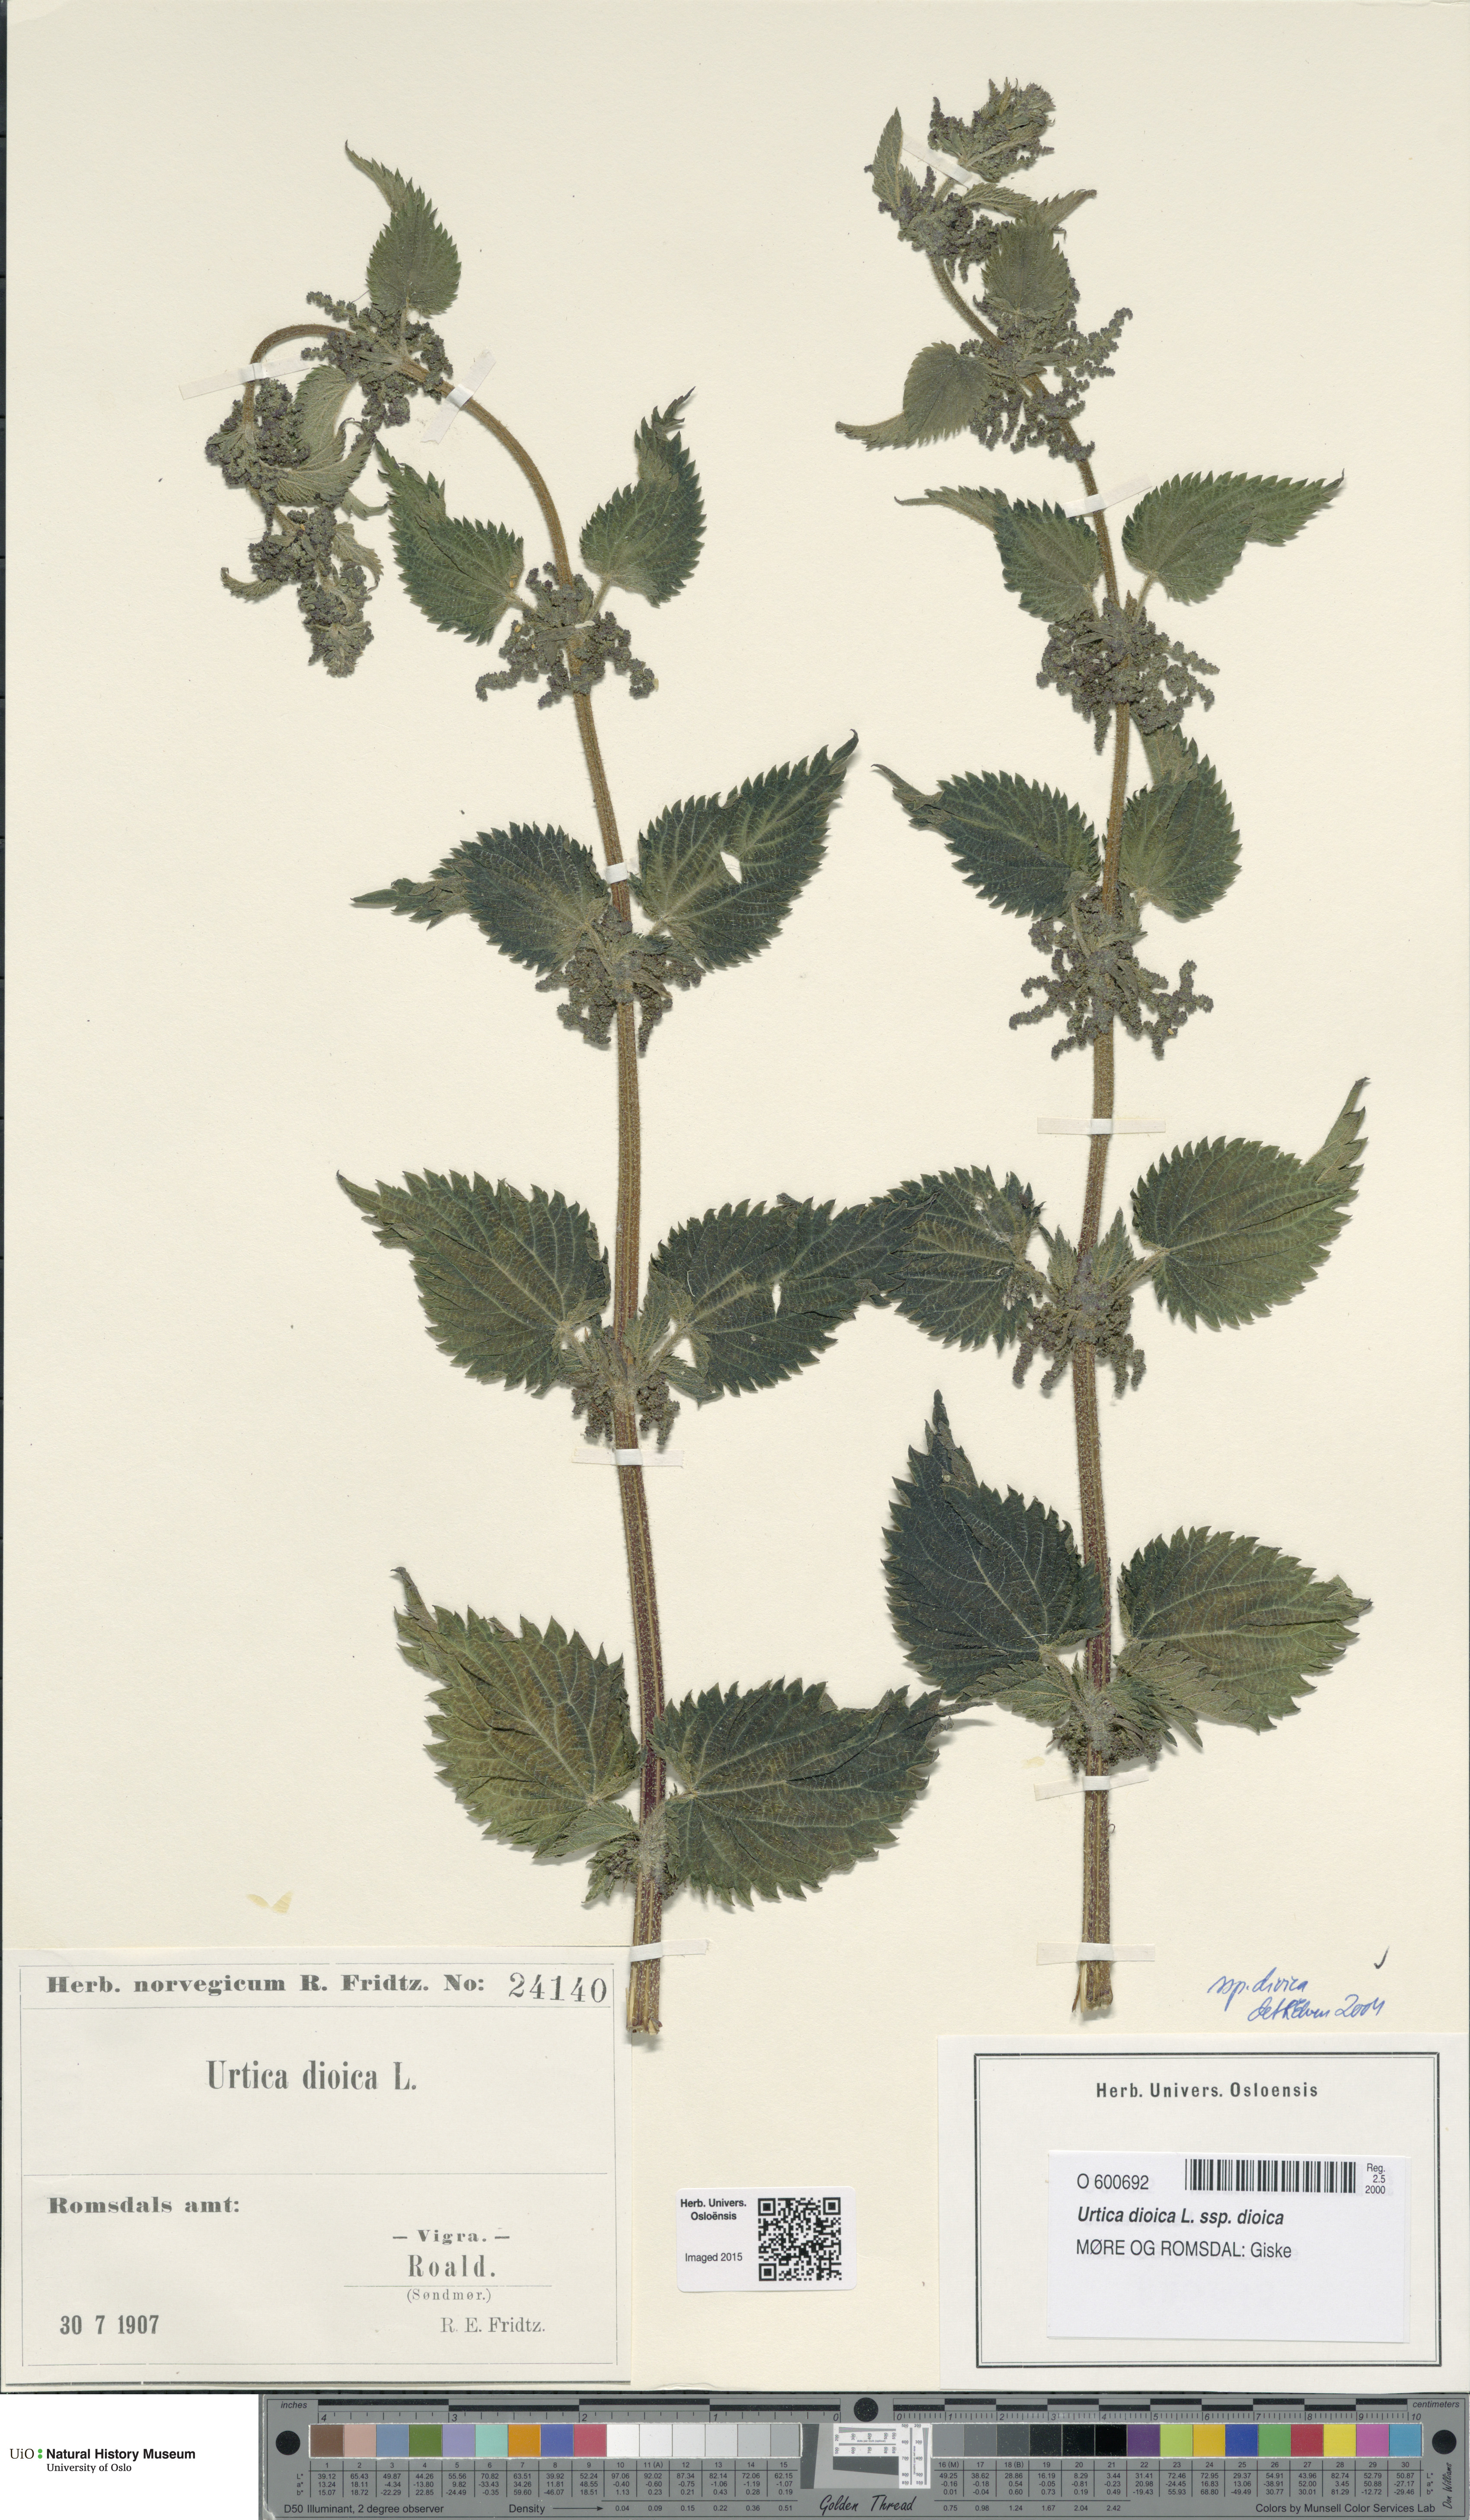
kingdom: Plantae
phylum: Tracheophyta
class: Magnoliopsida
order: Rosales
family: Urticaceae
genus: Urtica
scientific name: Urtica dioica
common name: Common nettle
